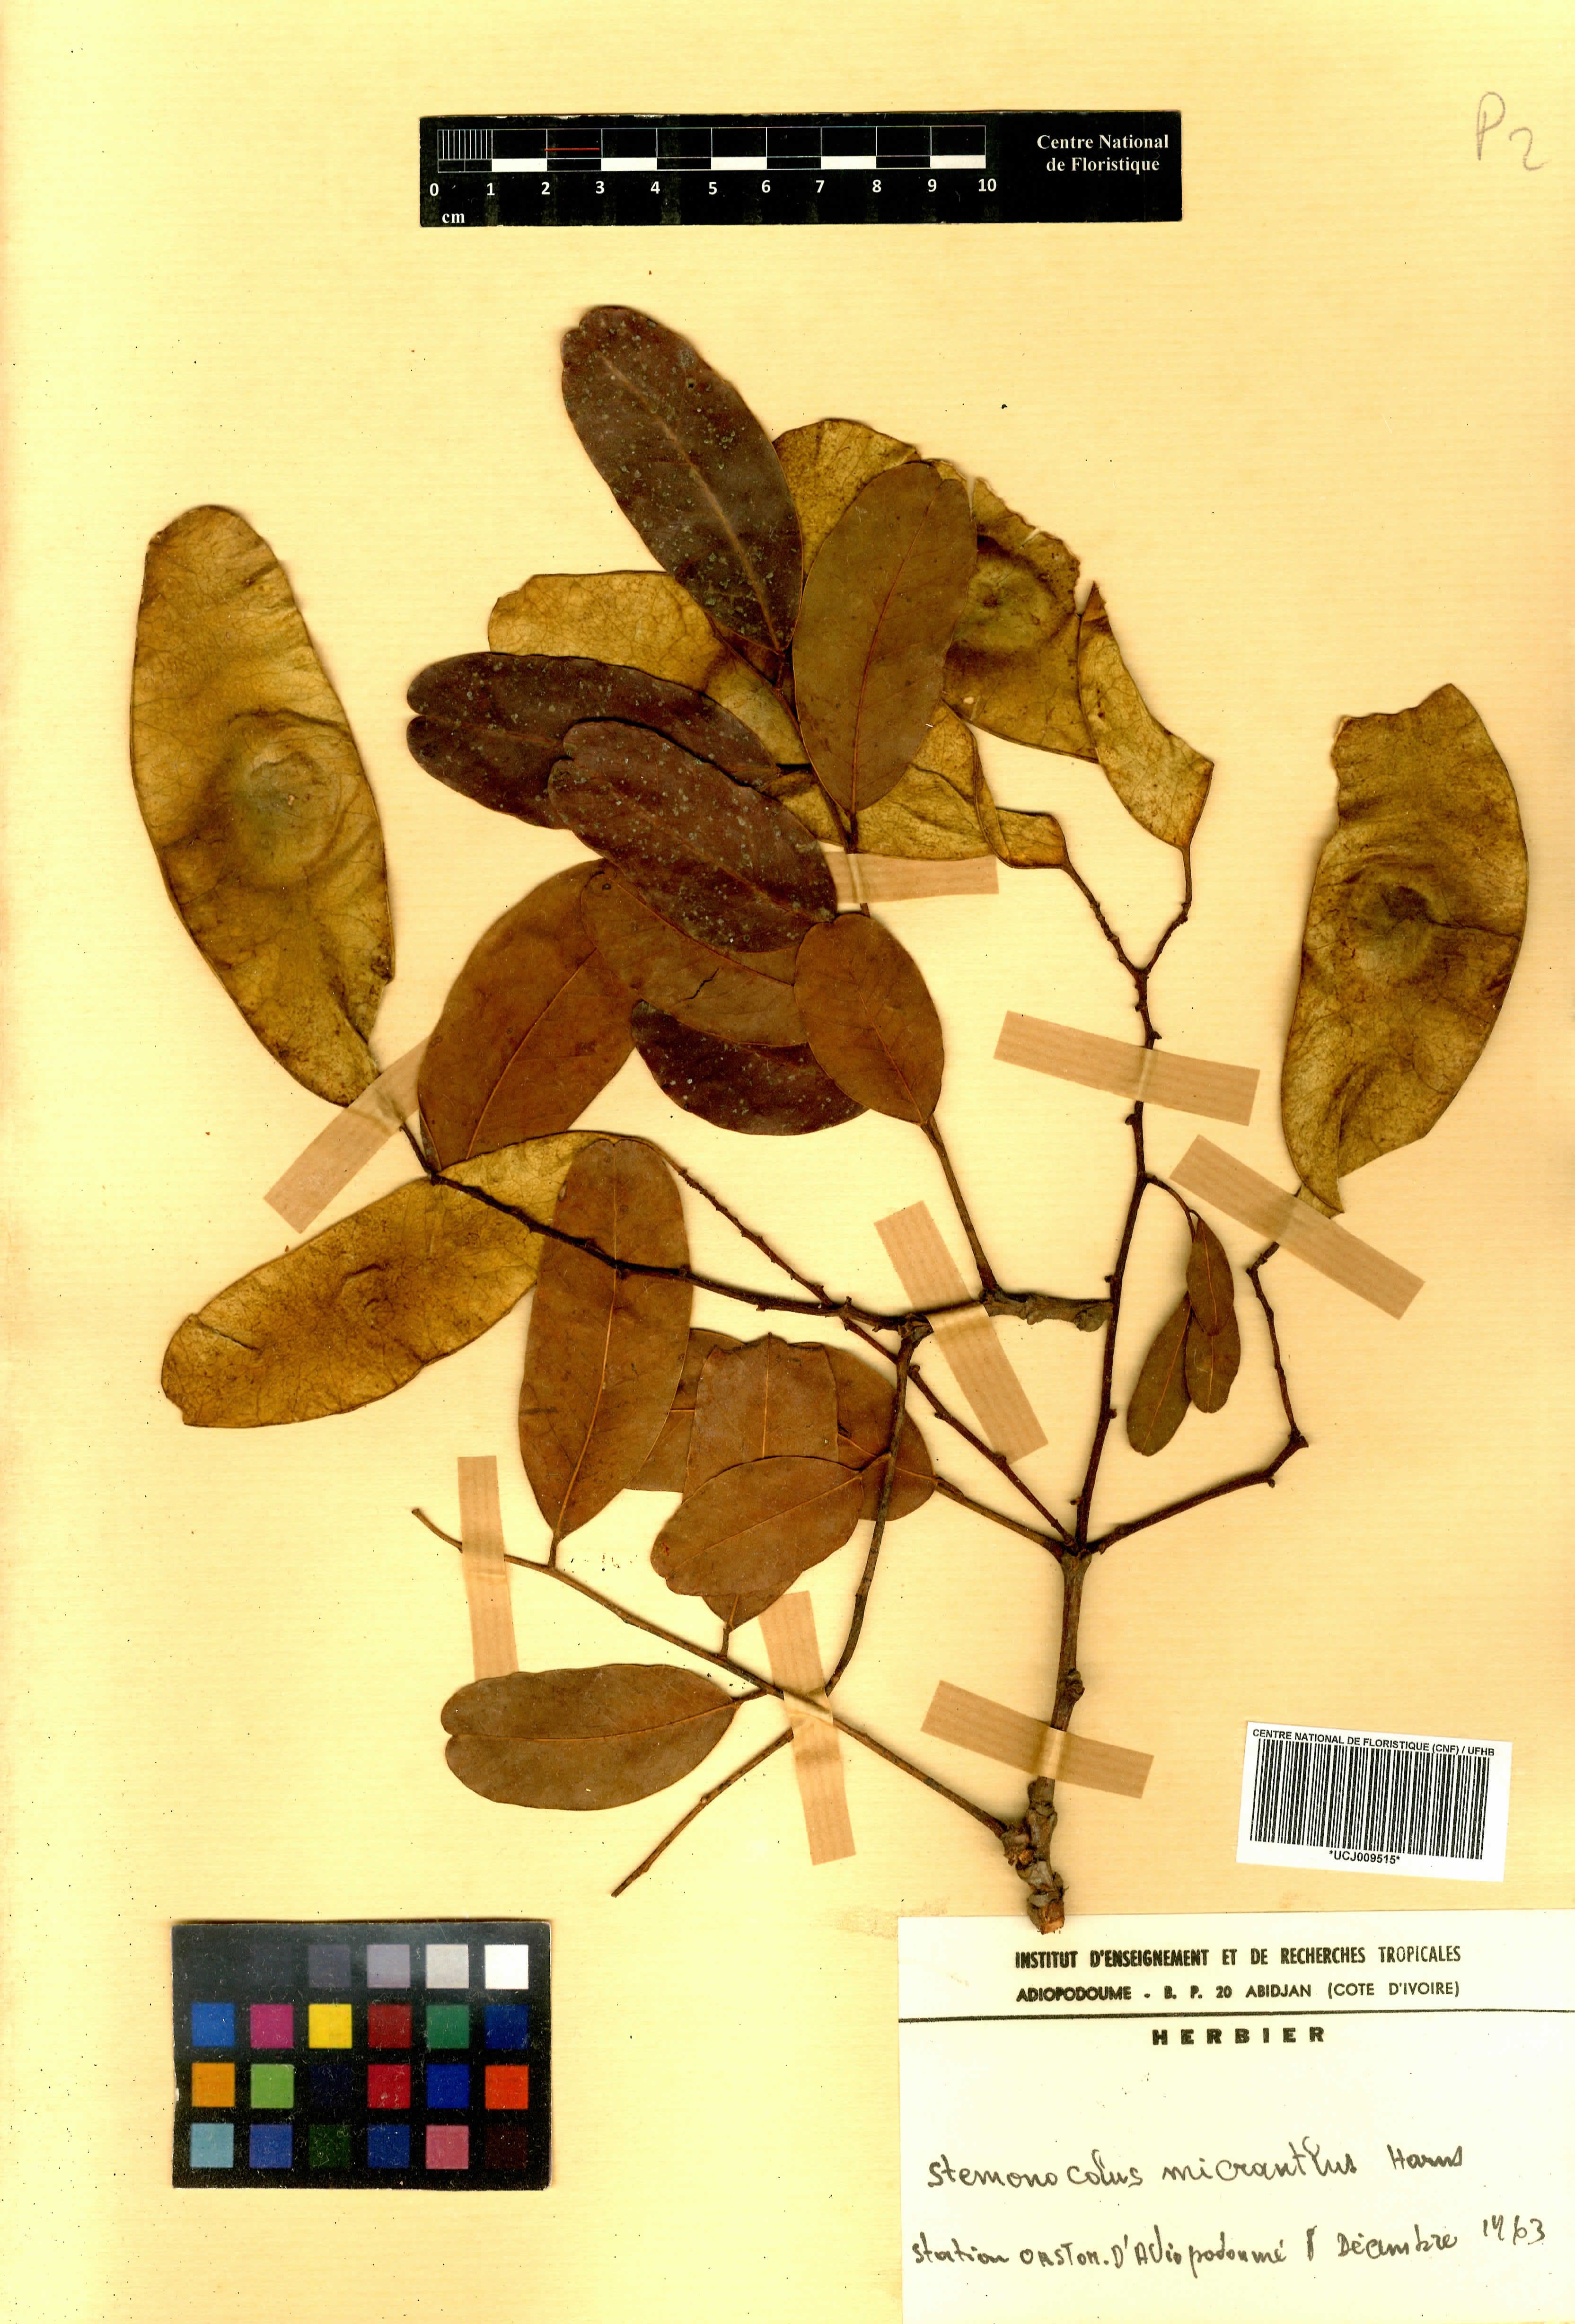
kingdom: Plantae
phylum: Tracheophyta
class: Magnoliopsida
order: Fabales
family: Fabaceae
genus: Stemonocoleus
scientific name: Stemonocoleus micranthus
